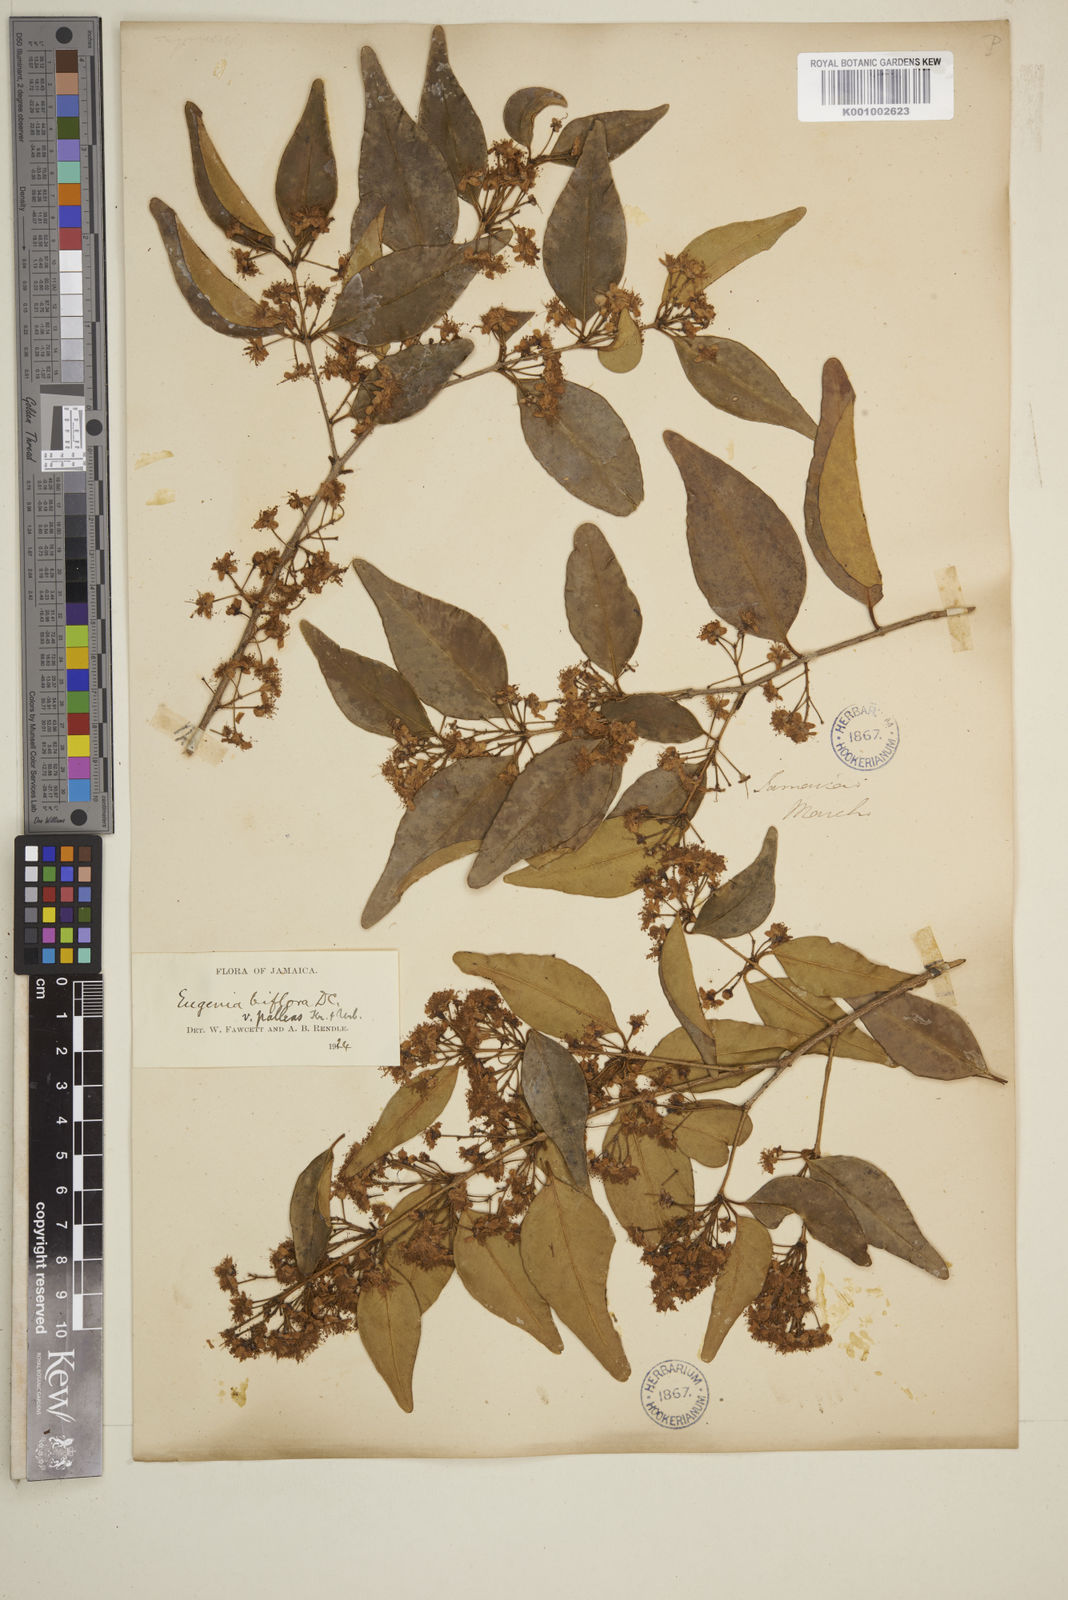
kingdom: Plantae
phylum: Tracheophyta
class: Magnoliopsida
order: Myrtales
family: Myrtaceae
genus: Myrcia
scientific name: Myrcia neopallens
